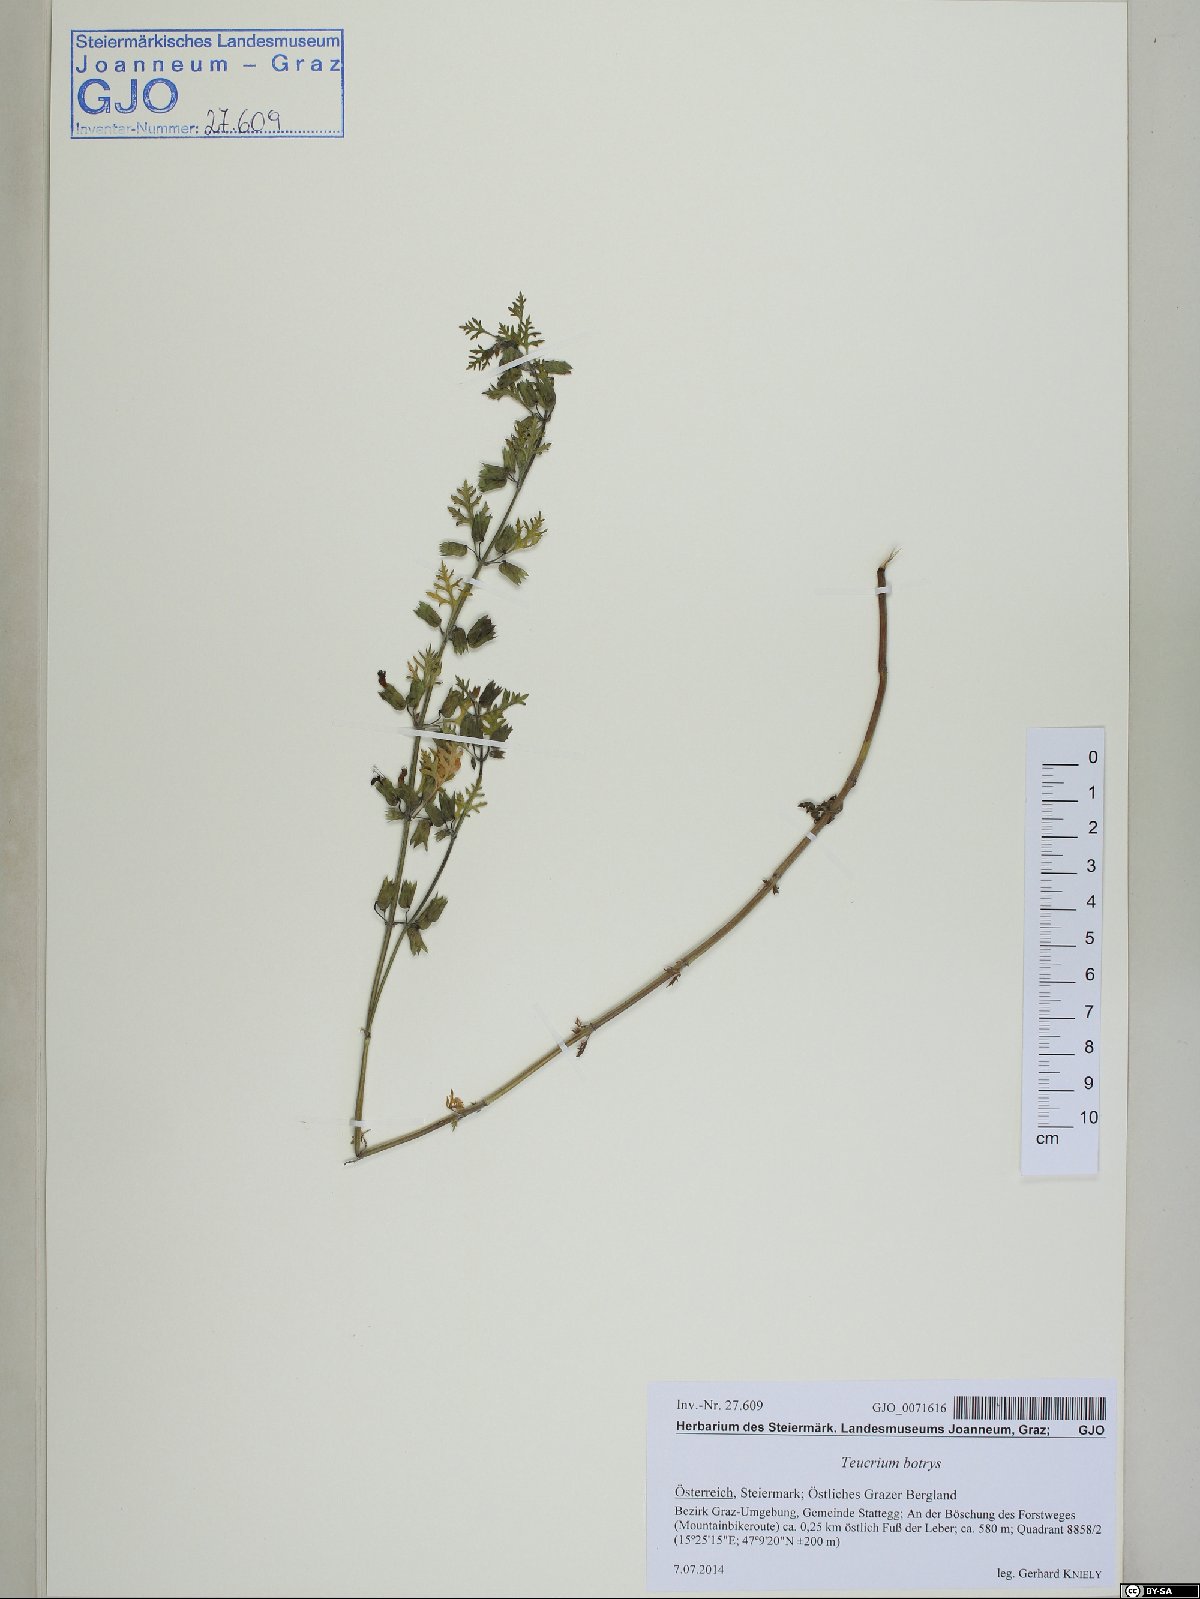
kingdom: Plantae
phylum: Tracheophyta
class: Magnoliopsida
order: Lamiales
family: Lamiaceae
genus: Teucrium
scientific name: Teucrium botrys
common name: Cut-leaved germander
